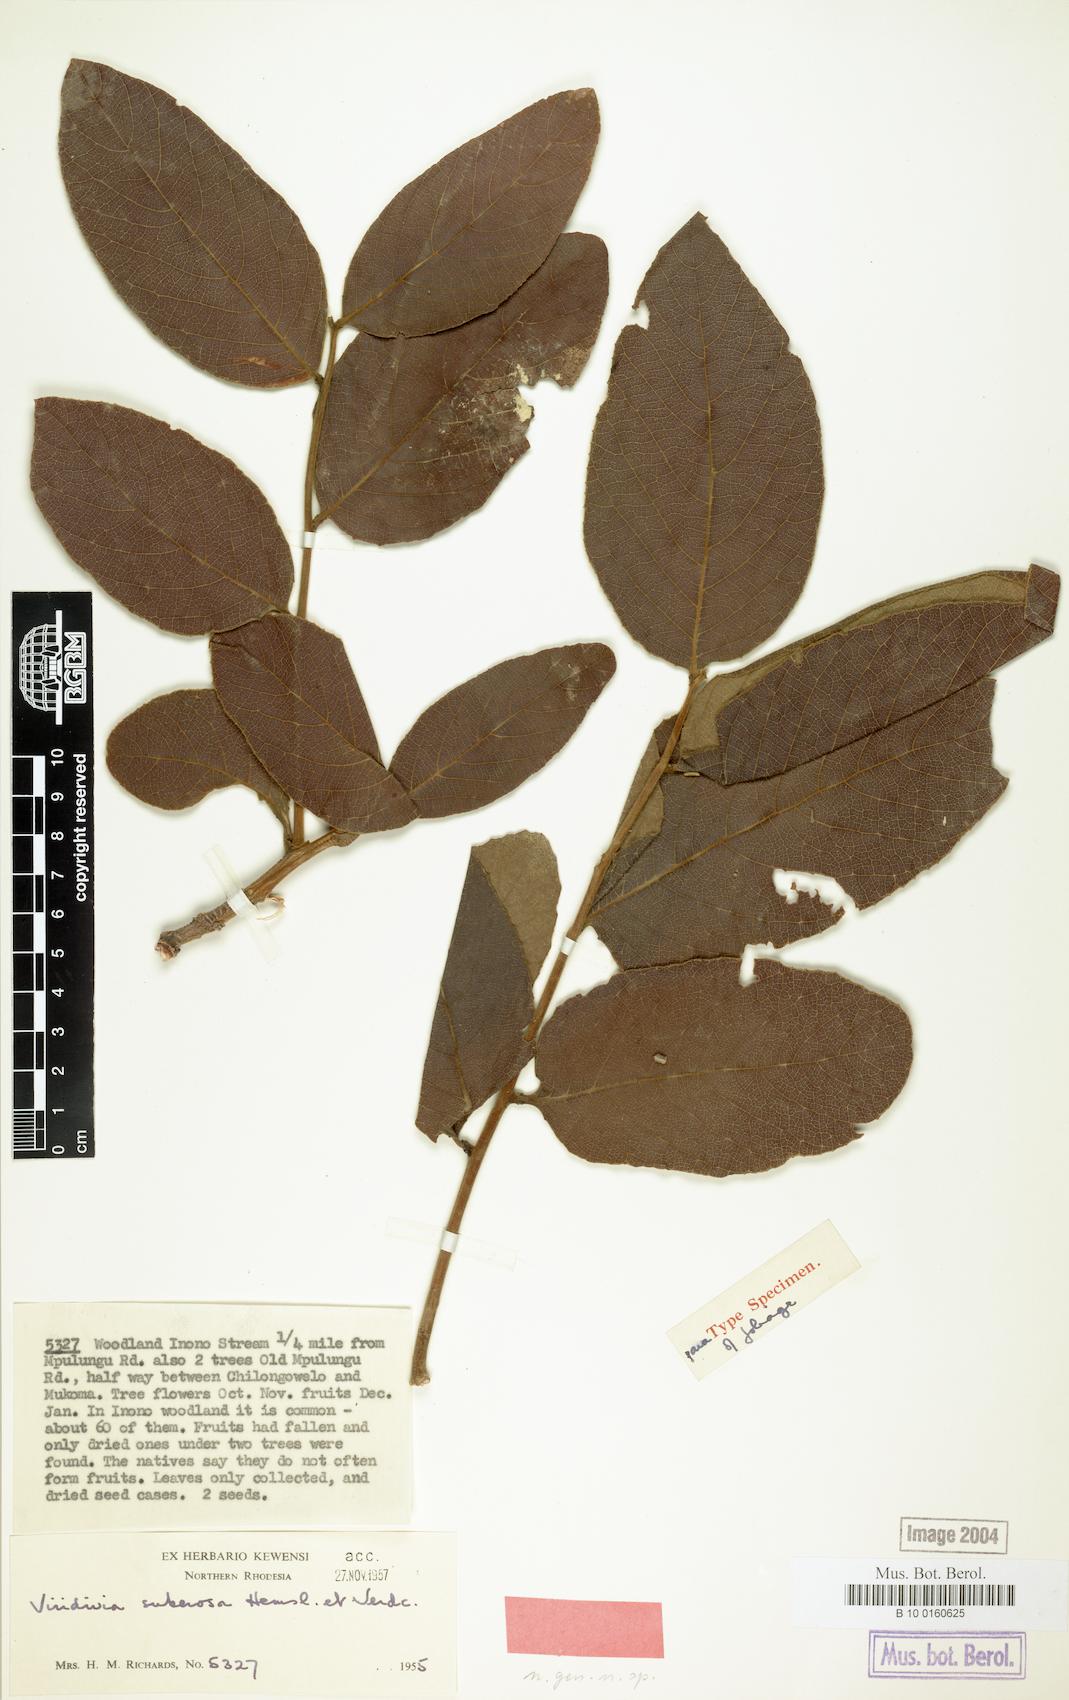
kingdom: Plantae
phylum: Tracheophyta
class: Magnoliopsida
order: Malpighiales
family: Passifloraceae
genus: Viridivia
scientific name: Viridivia suberosa
